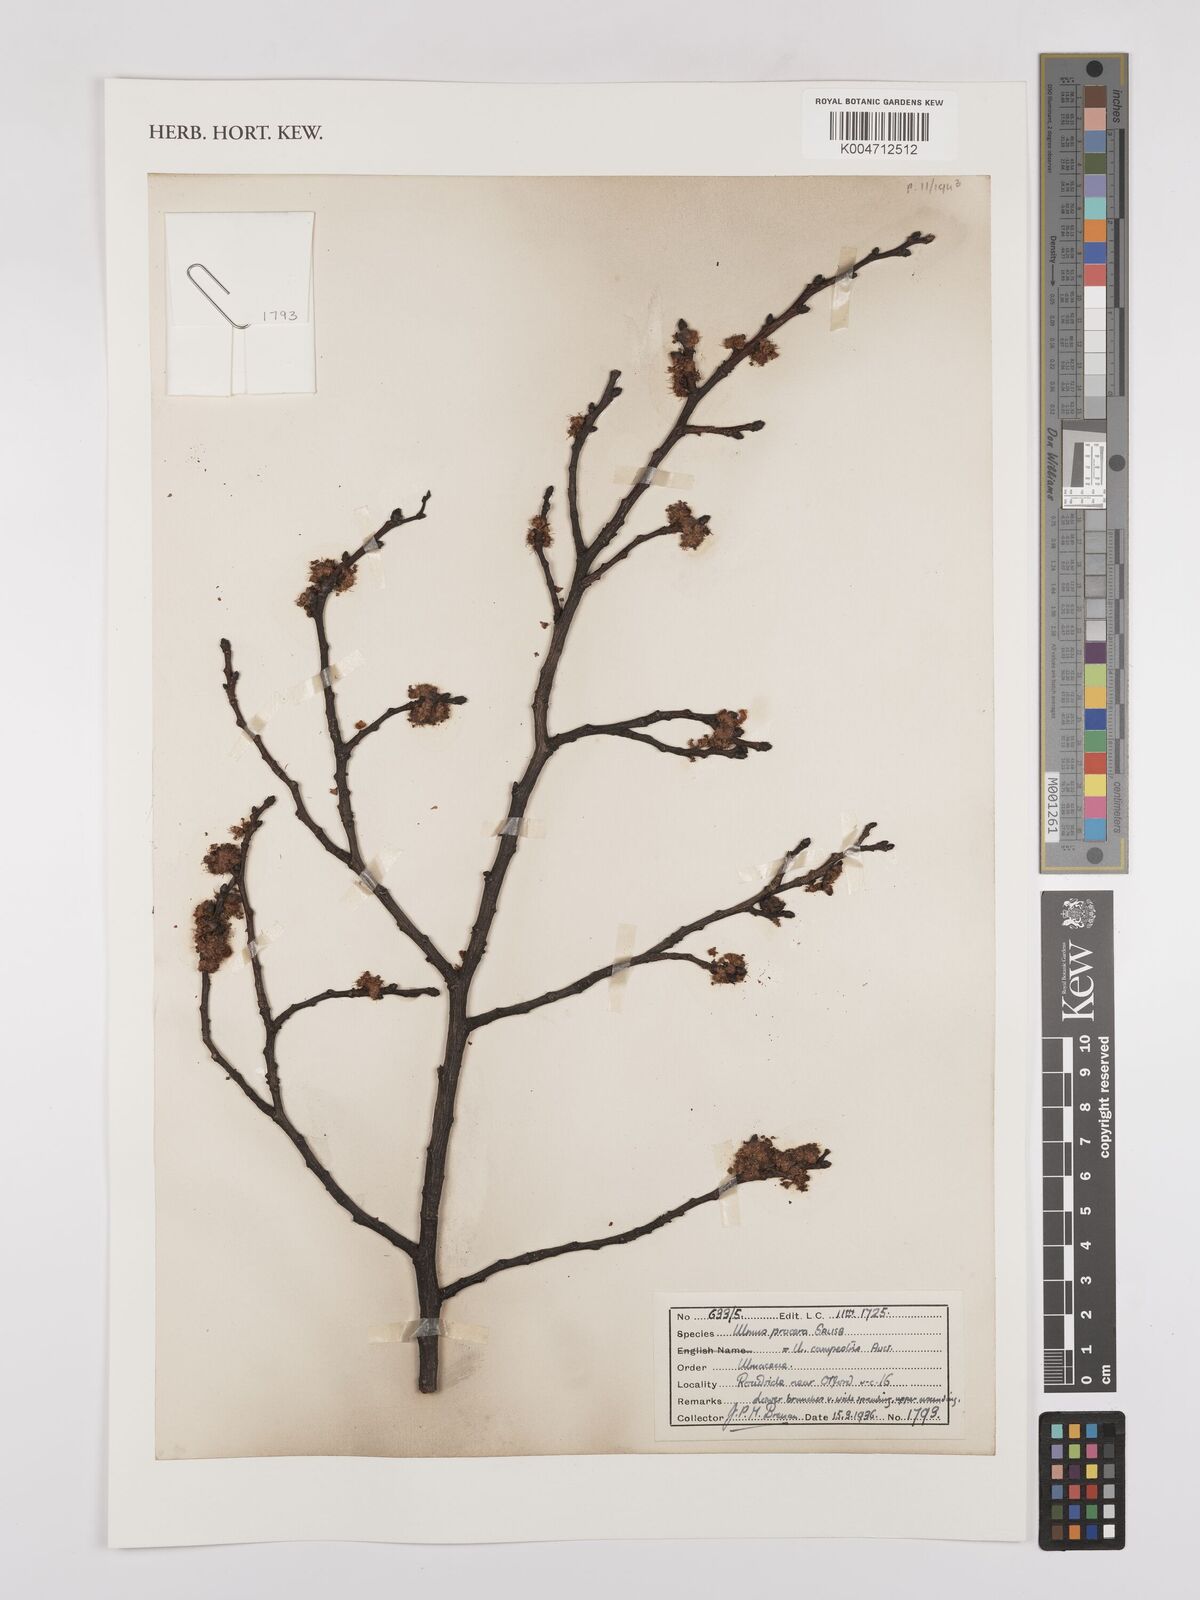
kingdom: Plantae
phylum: Tracheophyta
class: Magnoliopsida
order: Rosales
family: Ulmaceae
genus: Ulmus
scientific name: Ulmus minor
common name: Small-leaved elm
